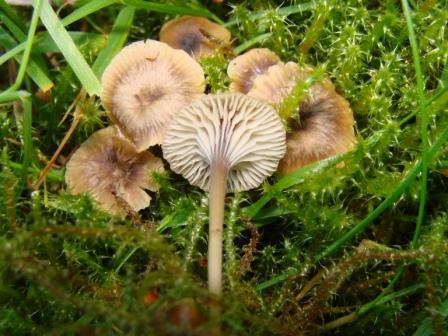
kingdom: Fungi
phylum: Basidiomycota
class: Agaricomycetes
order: Hymenochaetales
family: Rickenellaceae
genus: Rickenella
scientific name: Rickenella swartzii
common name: finstokket mosnavlehat
